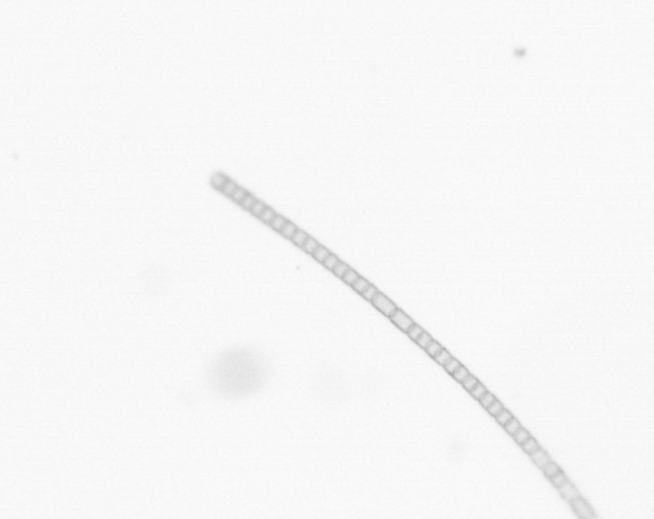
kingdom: Chromista
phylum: Ochrophyta
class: Bacillariophyceae
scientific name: Bacillariophyceae
